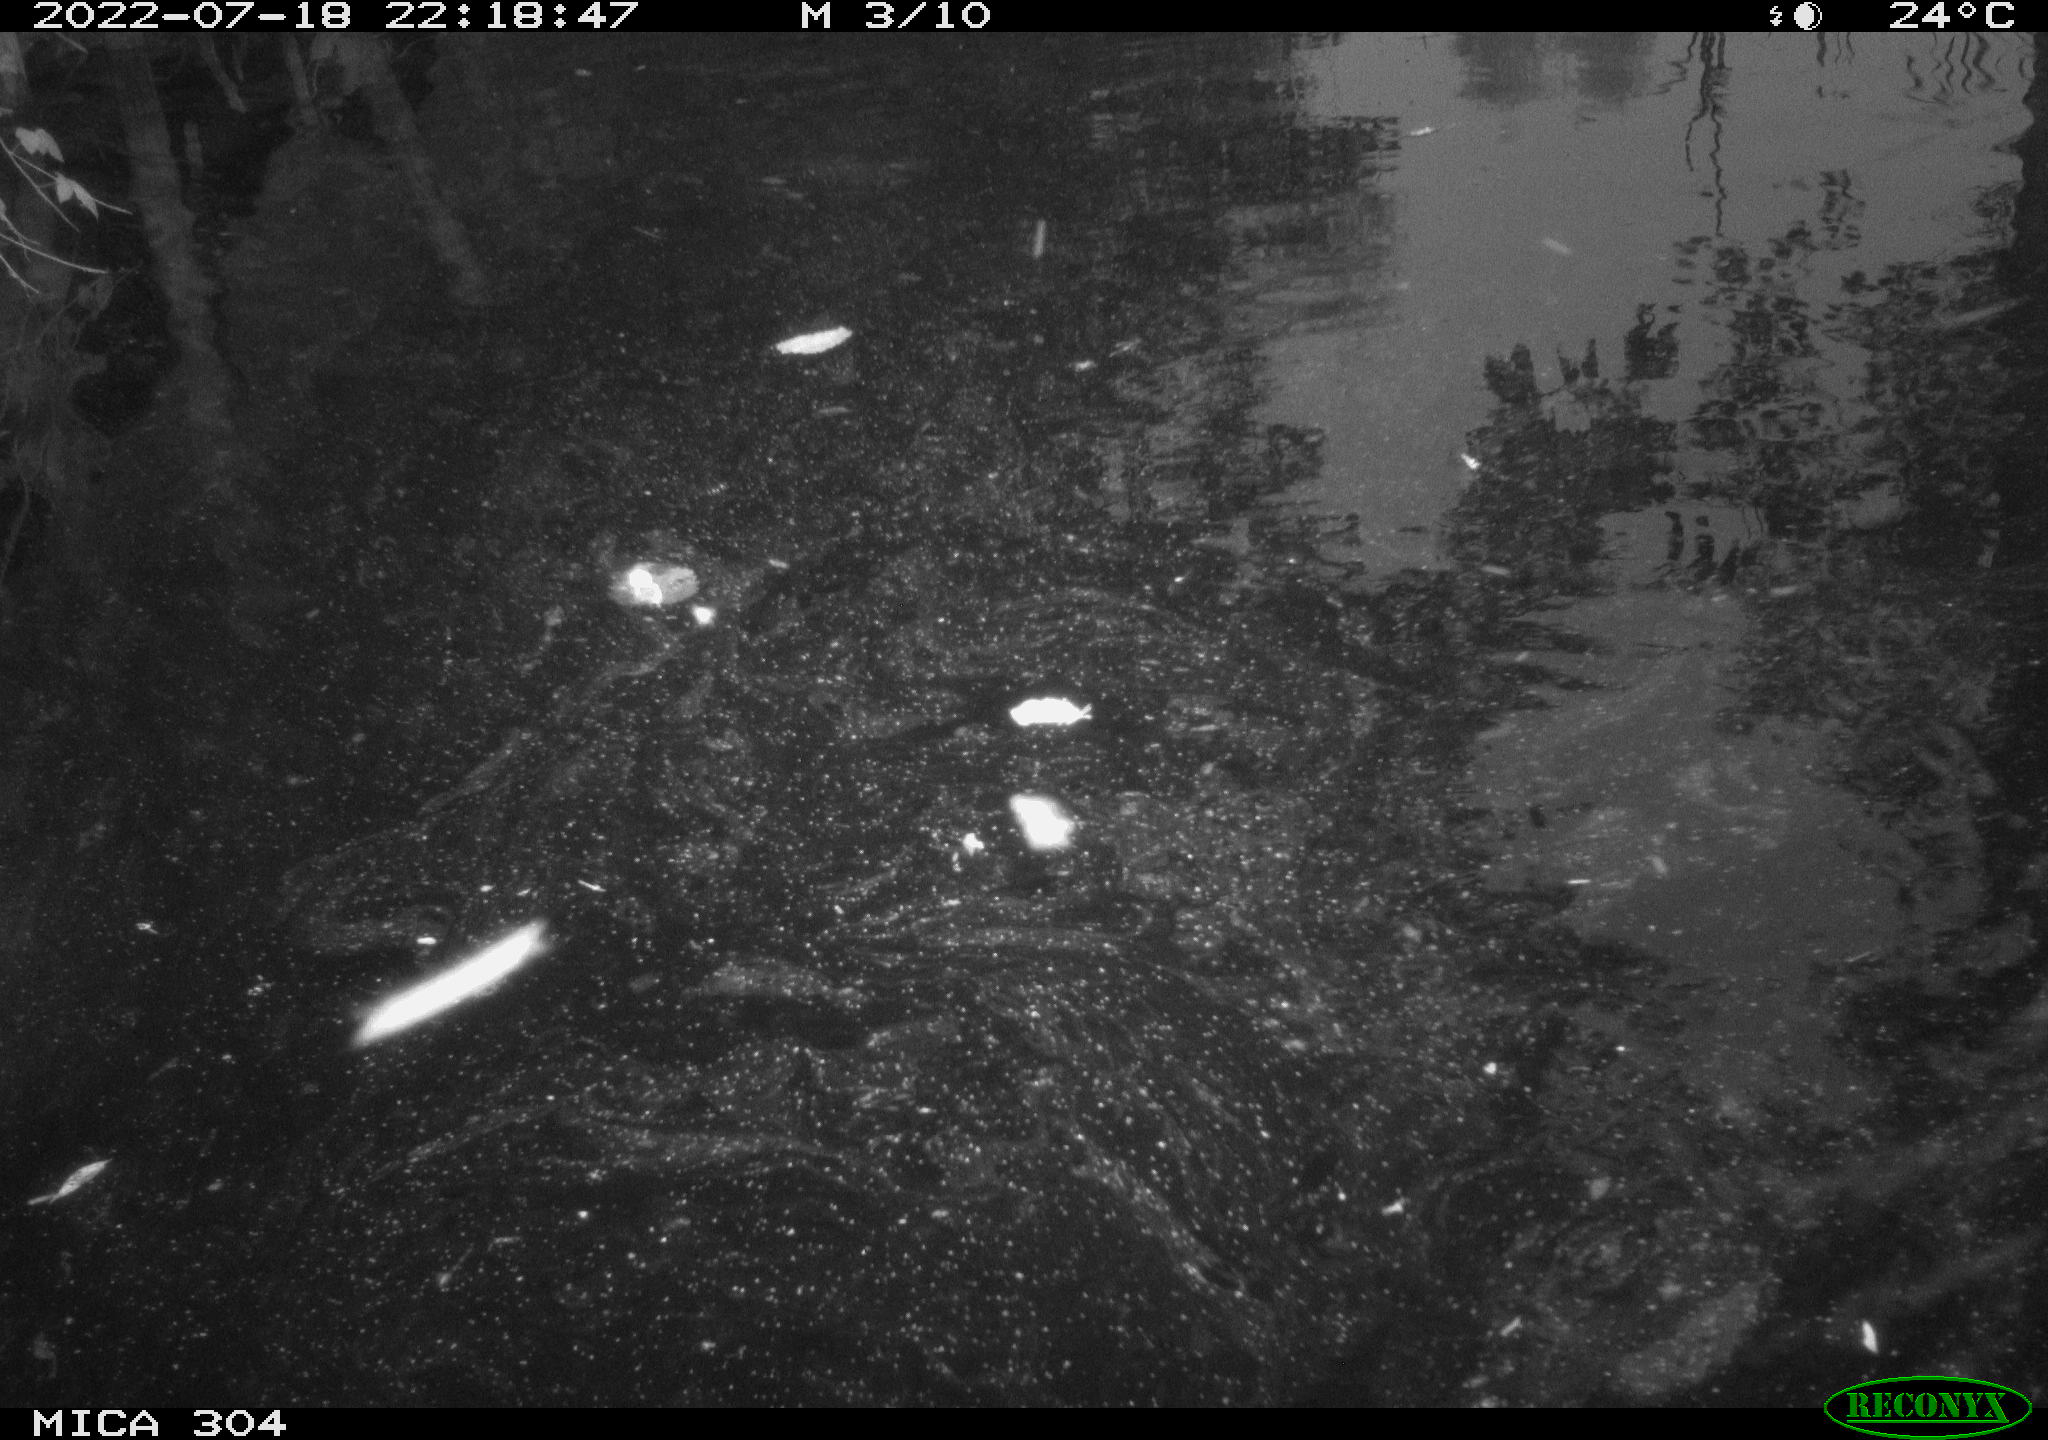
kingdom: Animalia
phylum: Chordata
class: Aves
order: Anseriformes
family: Anatidae
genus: Anas
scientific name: Anas platyrhynchos
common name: Mallard
